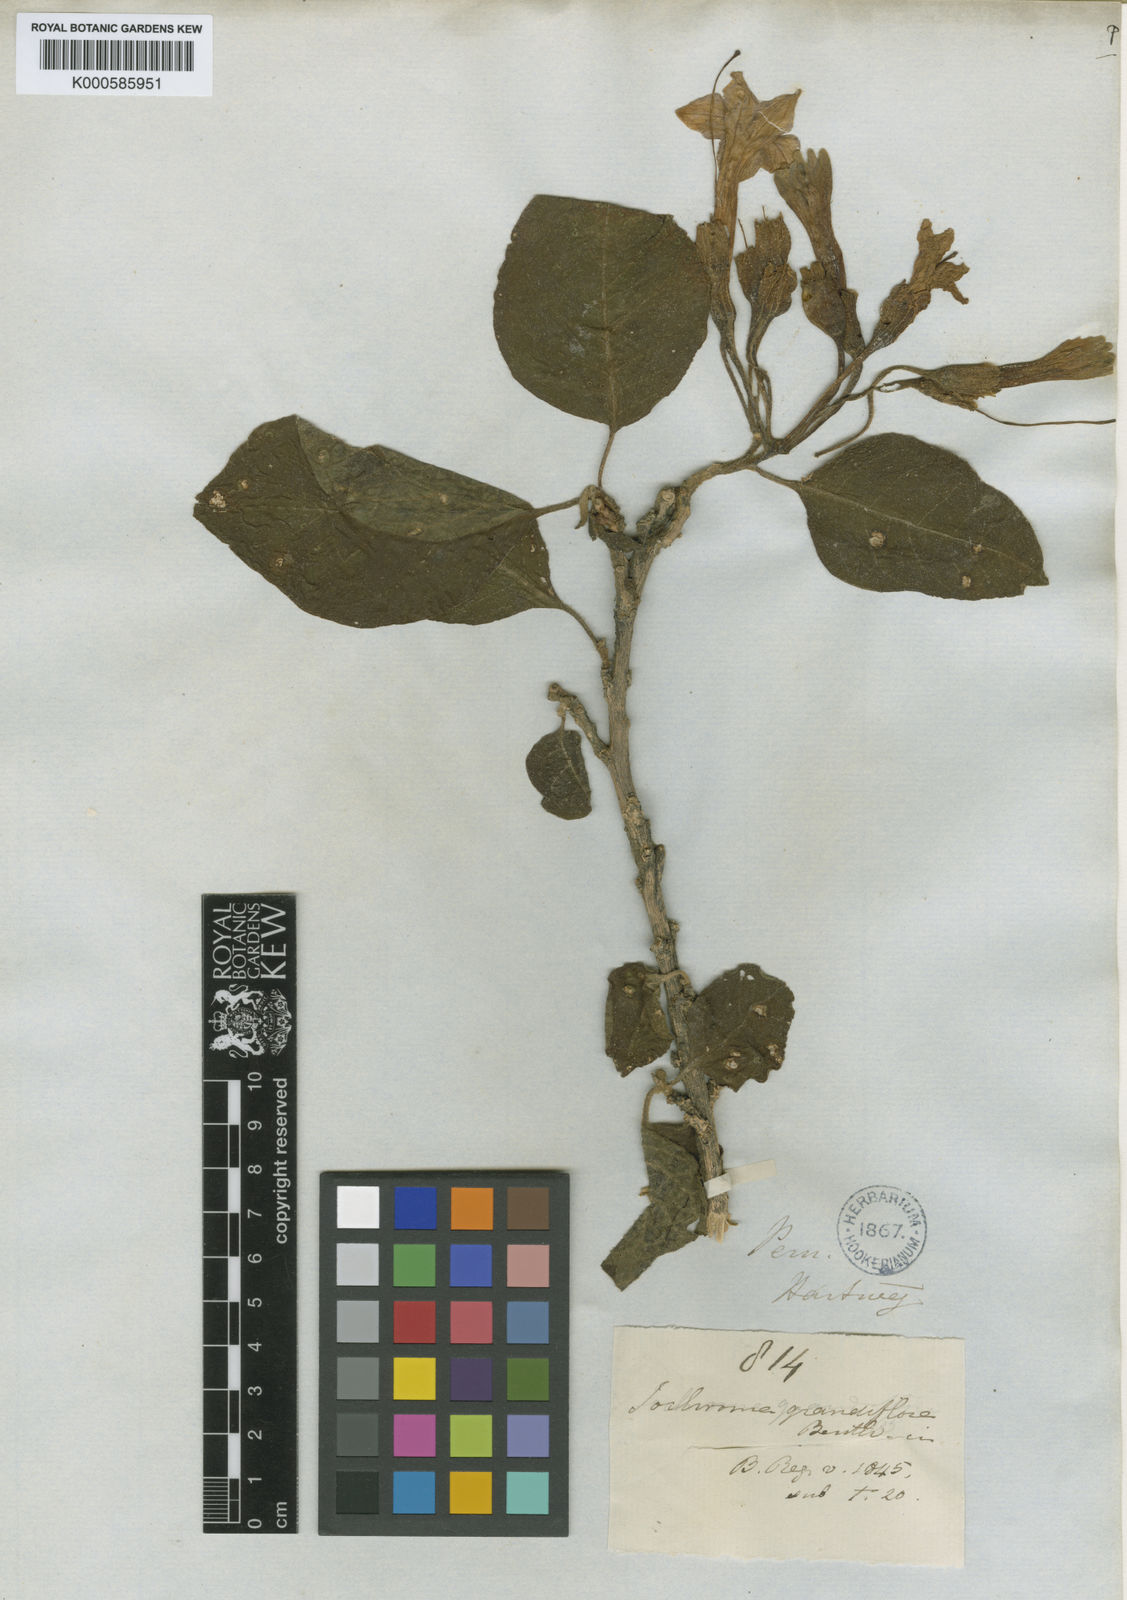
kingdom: Plantae
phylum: Tracheophyta
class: Magnoliopsida
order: Solanales
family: Solanaceae
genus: Trozelia
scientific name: Trozelia grandiflora
